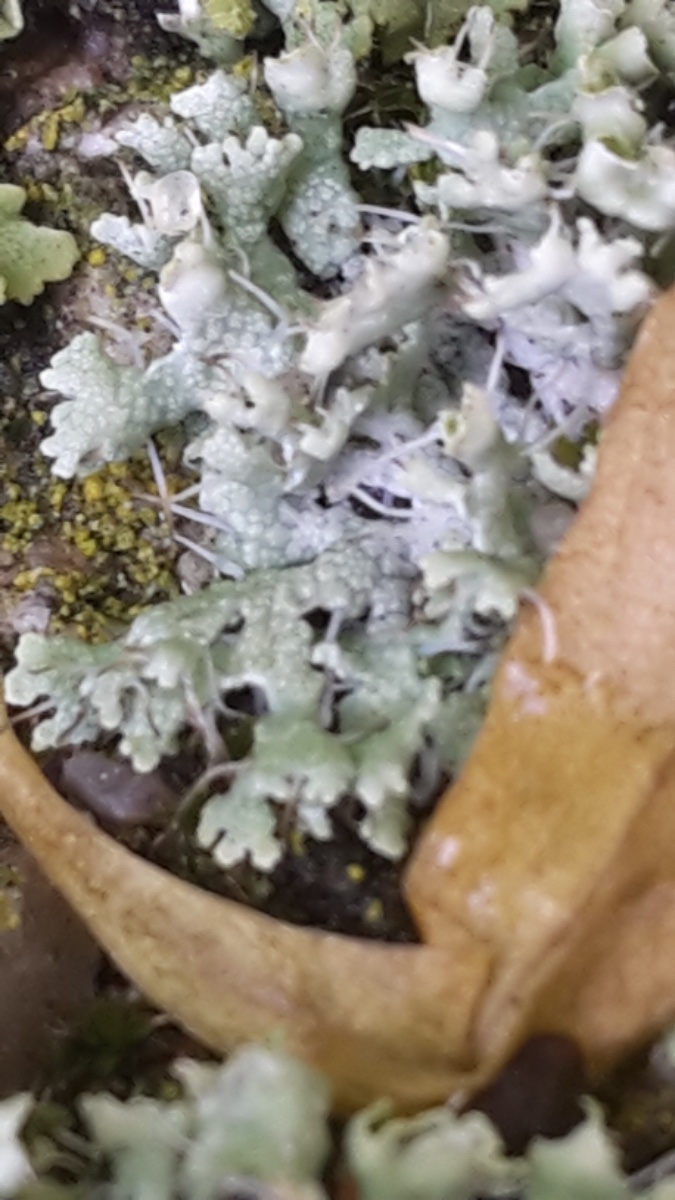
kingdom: Fungi
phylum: Ascomycota
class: Lecanoromycetes
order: Caliciales
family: Physciaceae
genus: Physcia
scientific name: Physcia adscendens
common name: hætte-rosetlav
